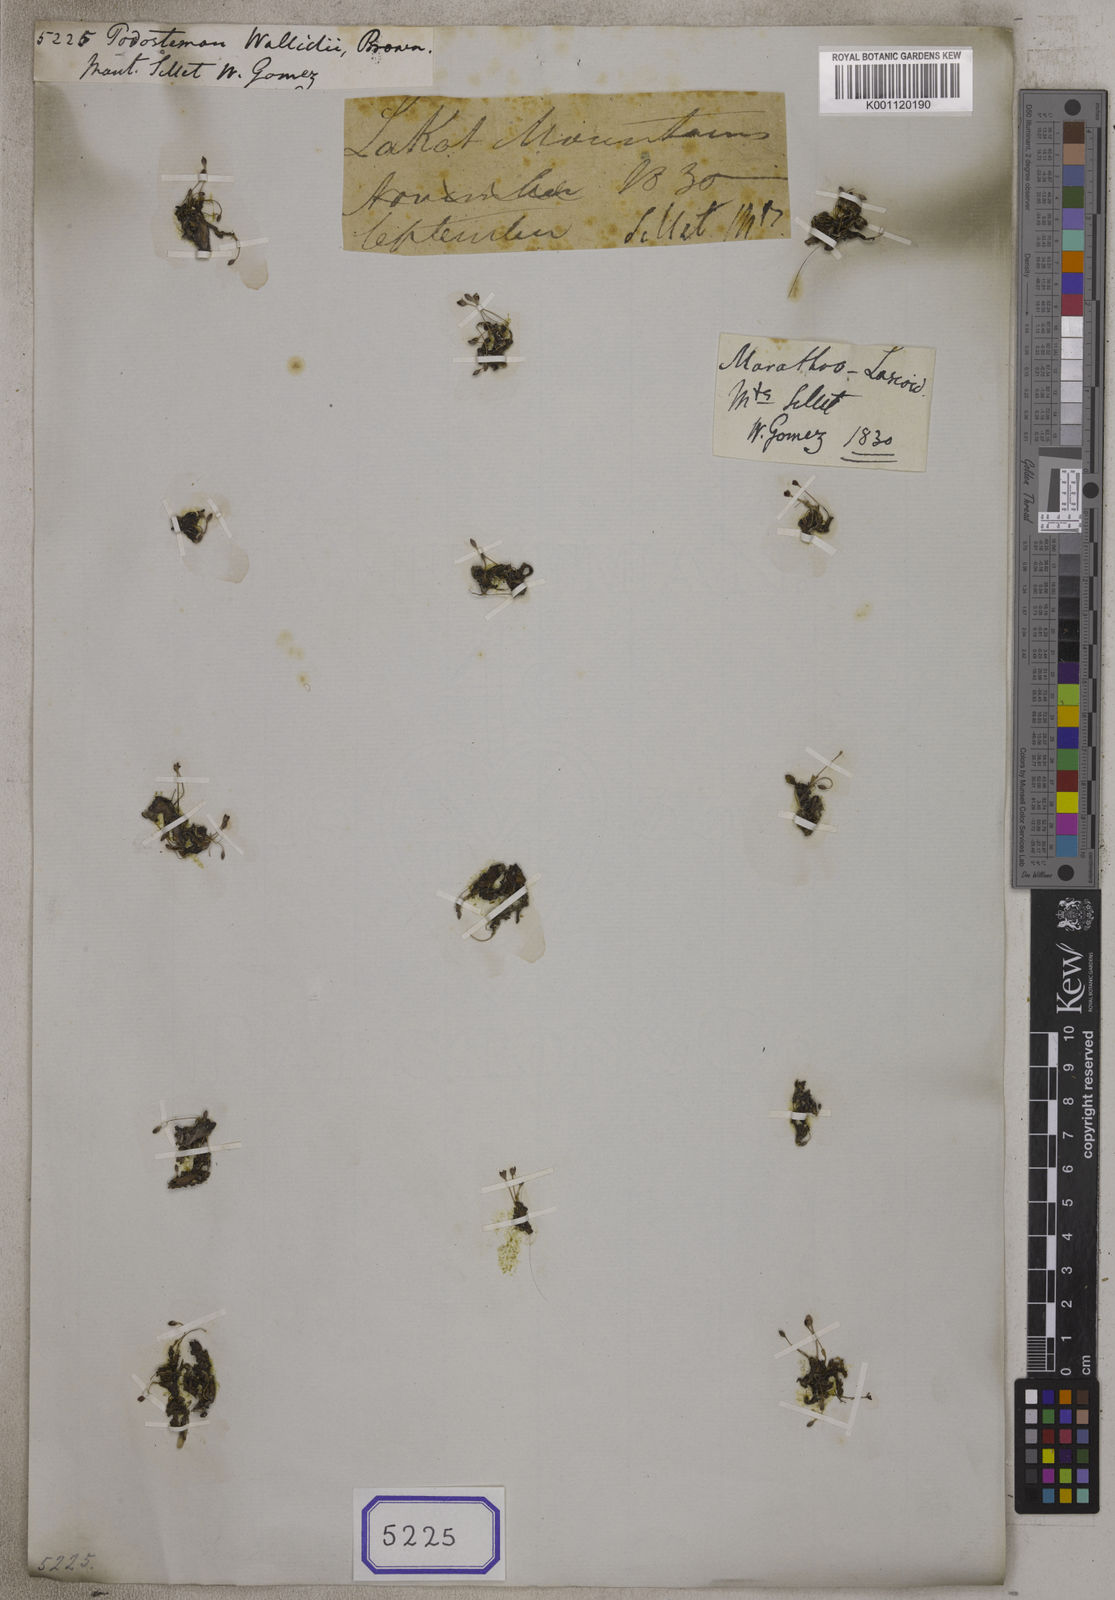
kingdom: Plantae
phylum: Tracheophyta
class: Magnoliopsida
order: Malpighiales
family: Podostemaceae
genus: Podostemum
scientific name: Podostemum
